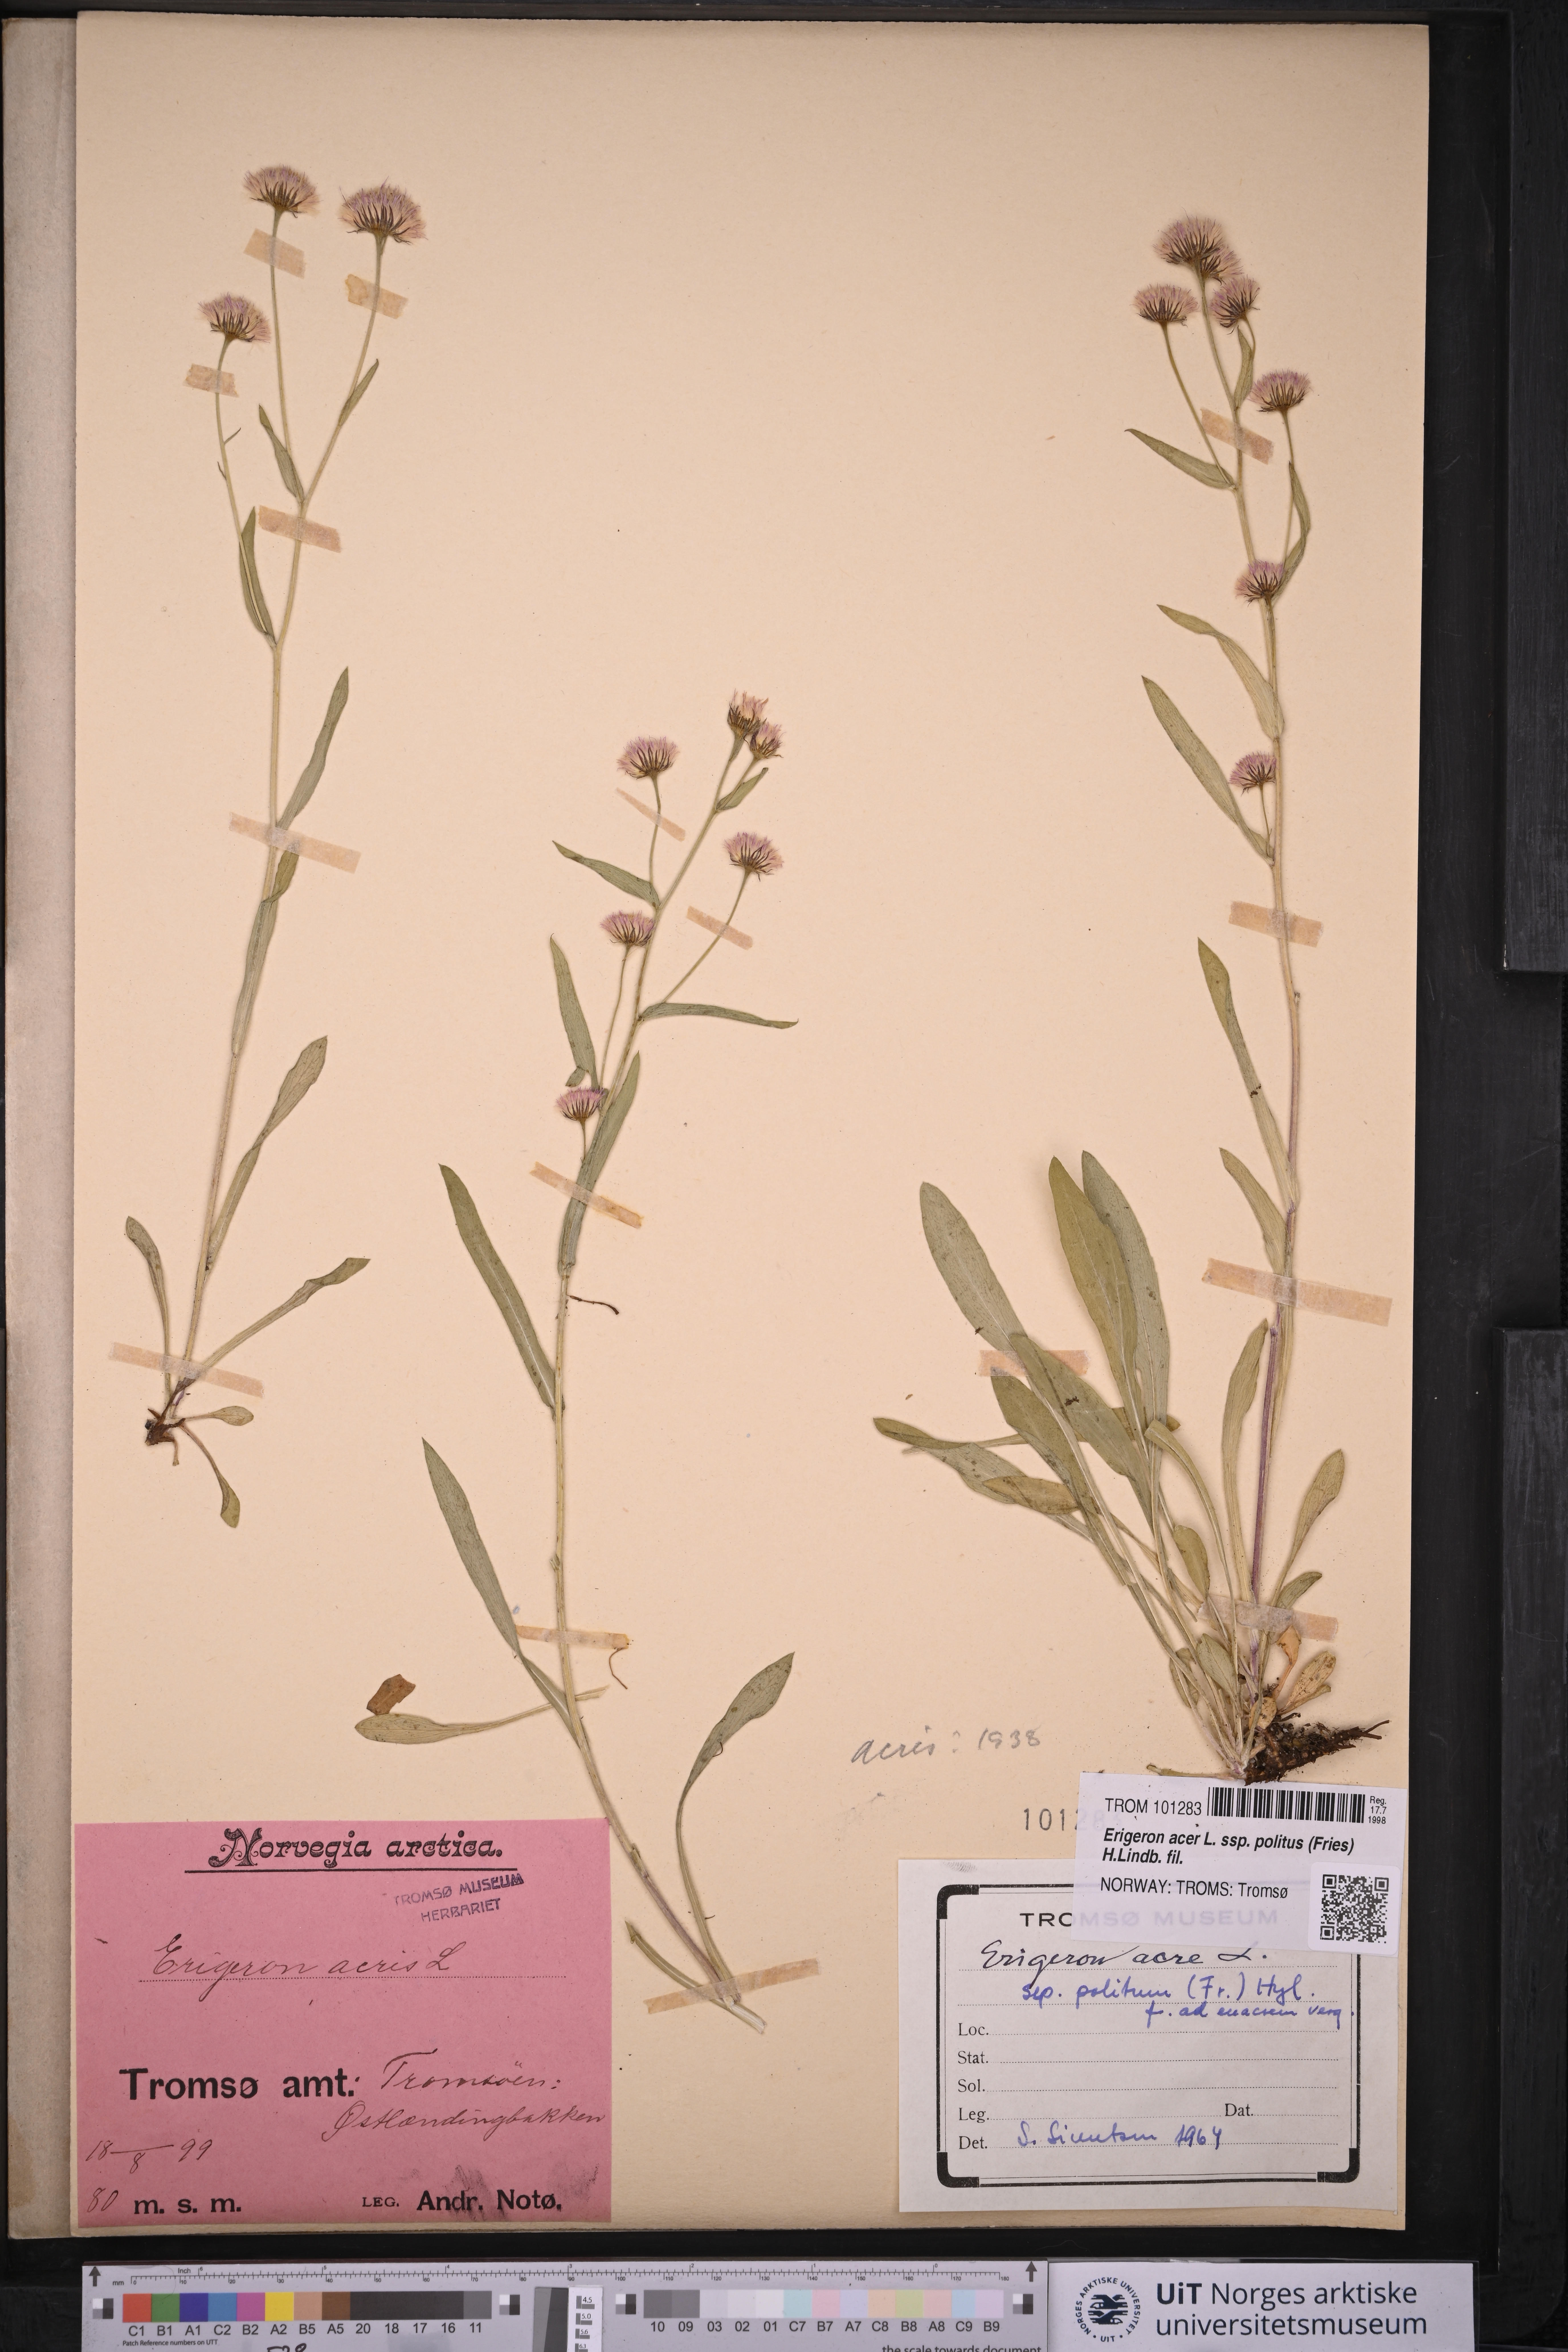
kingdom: Plantae
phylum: Tracheophyta
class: Magnoliopsida
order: Asterales
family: Asteraceae
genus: Erigeron
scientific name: Erigeron politus
